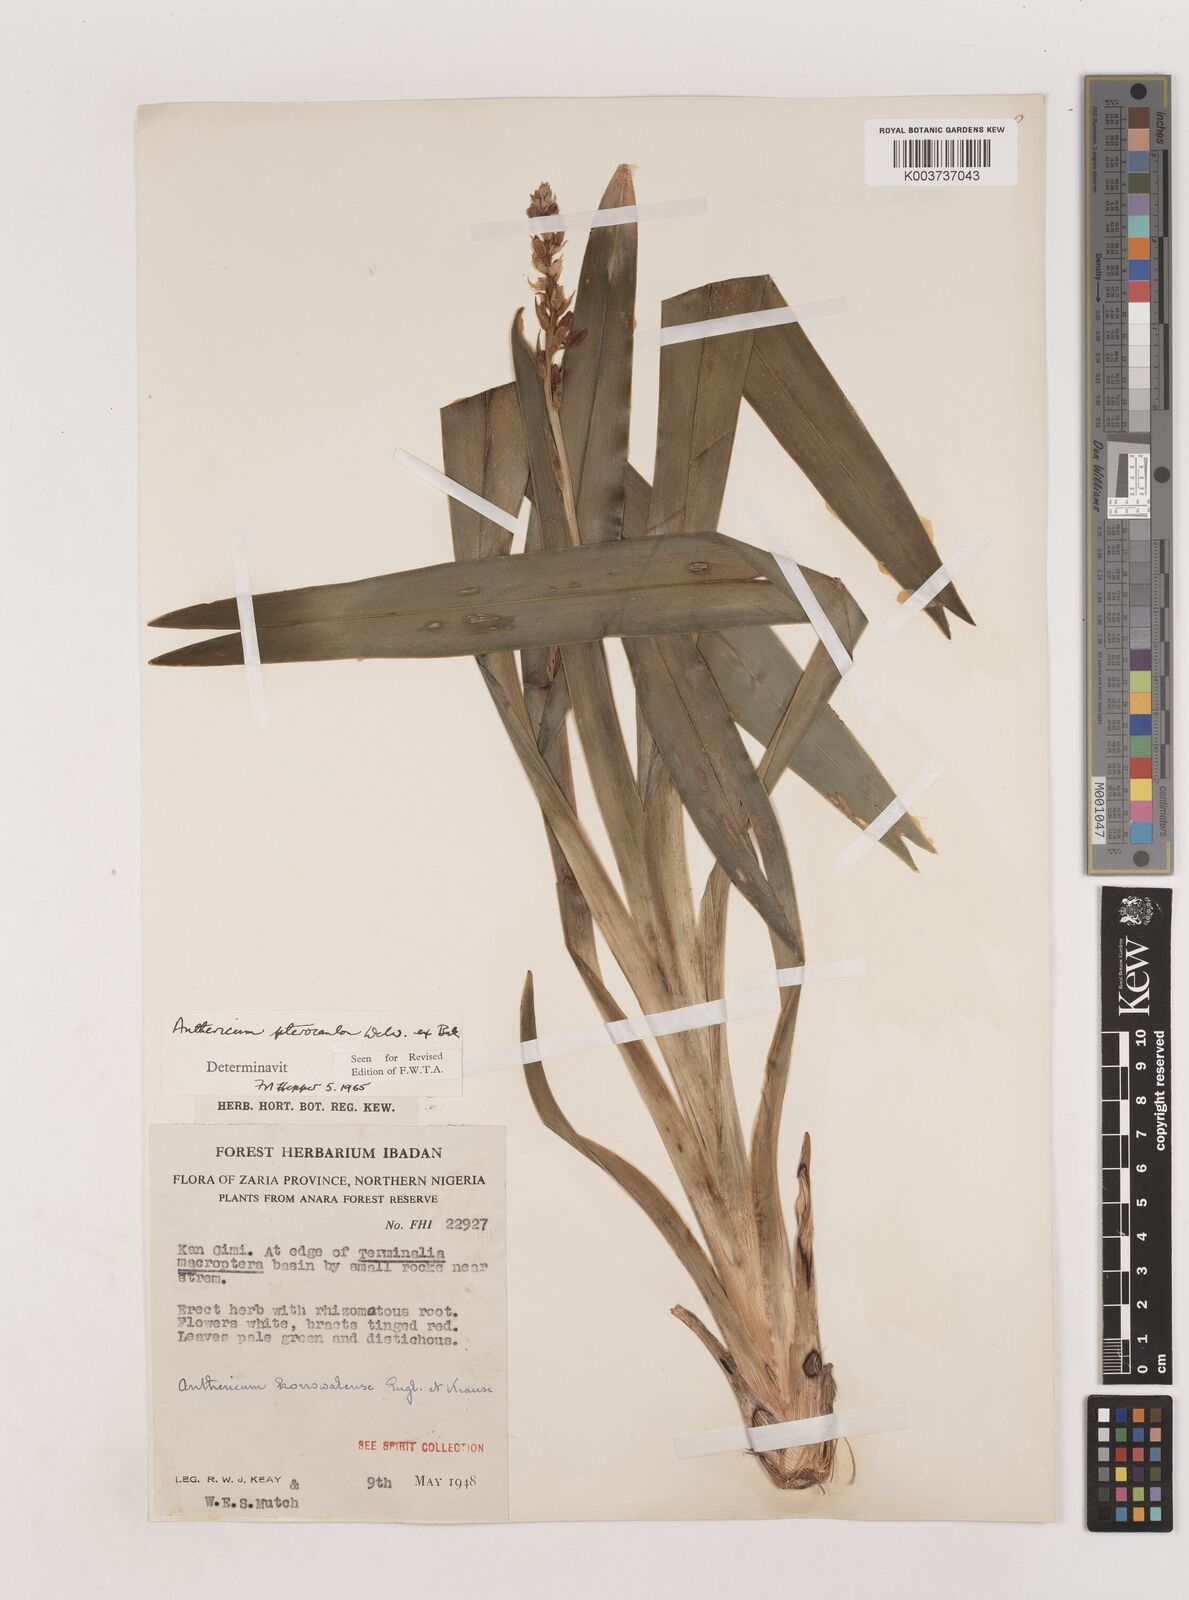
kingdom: Plantae
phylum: Tracheophyta
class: Liliopsida
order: Asparagales
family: Asparagaceae
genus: Chlorophytum
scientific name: Chlorophytum cameronii
